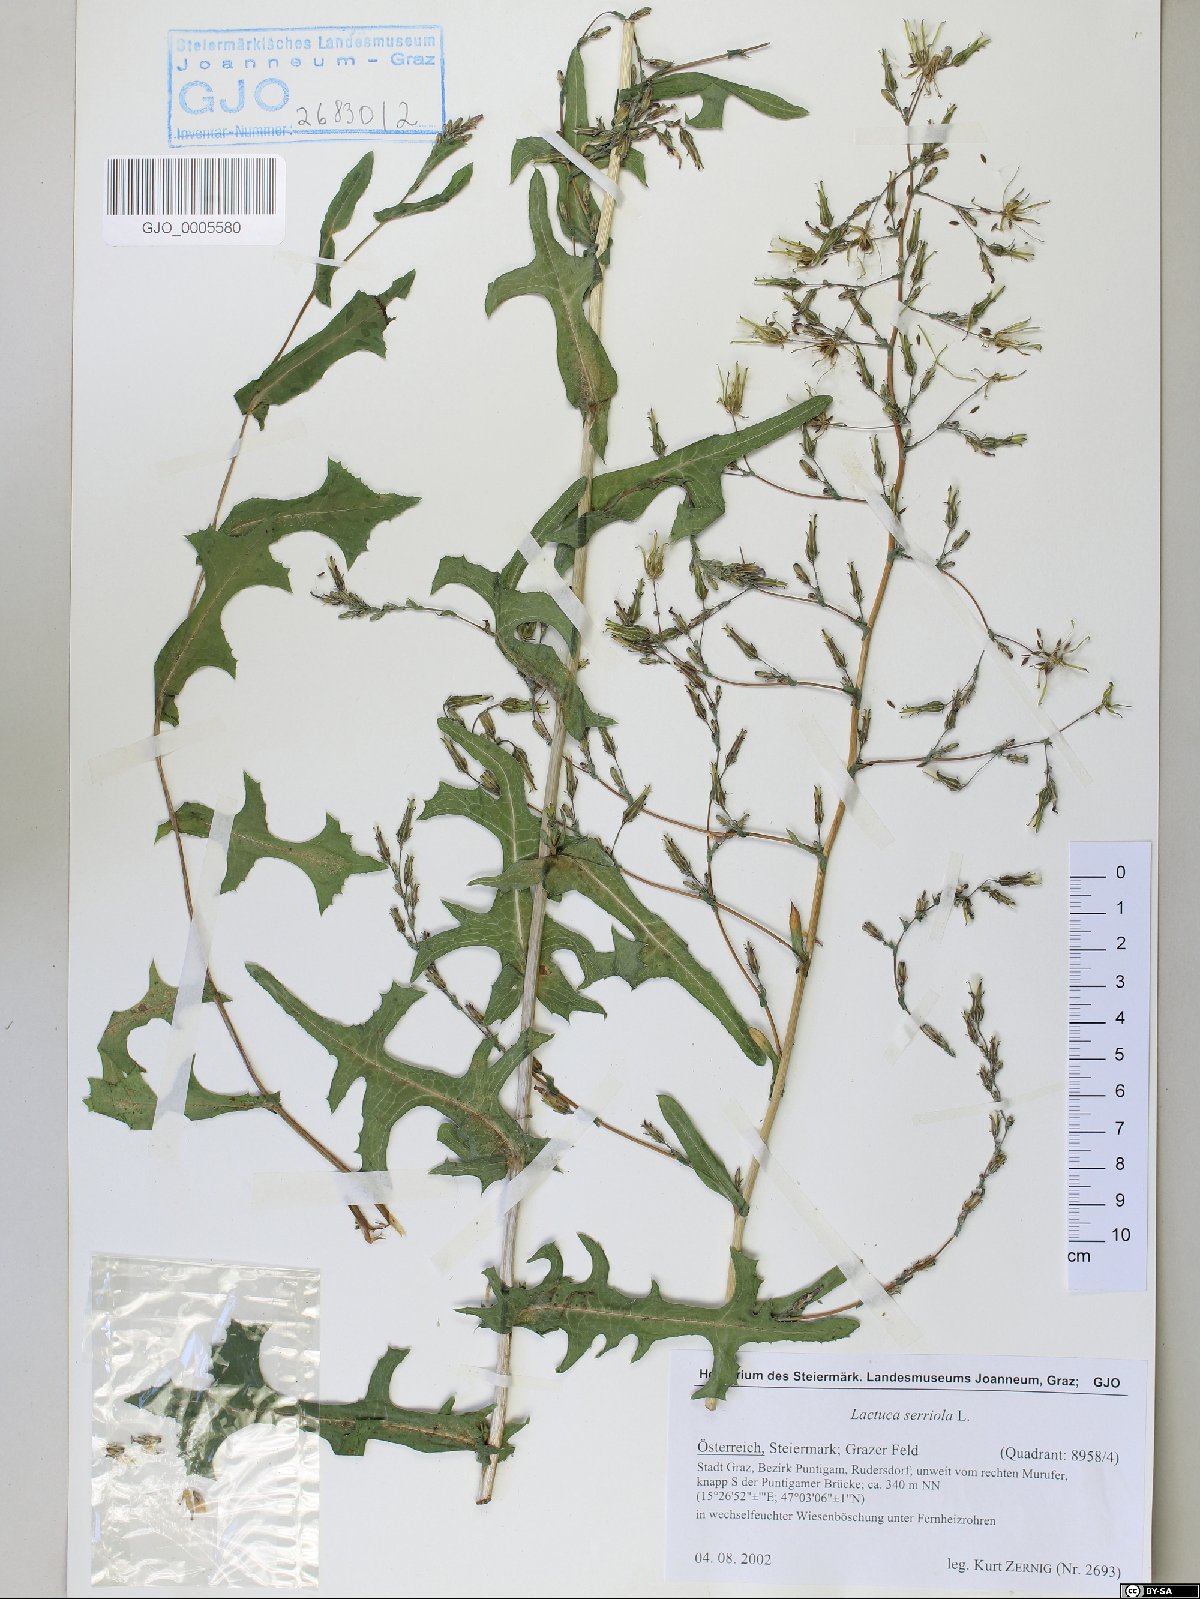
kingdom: Plantae
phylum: Tracheophyta
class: Magnoliopsida
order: Asterales
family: Asteraceae
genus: Lactuca
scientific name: Lactuca serriola
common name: Prickly lettuce
